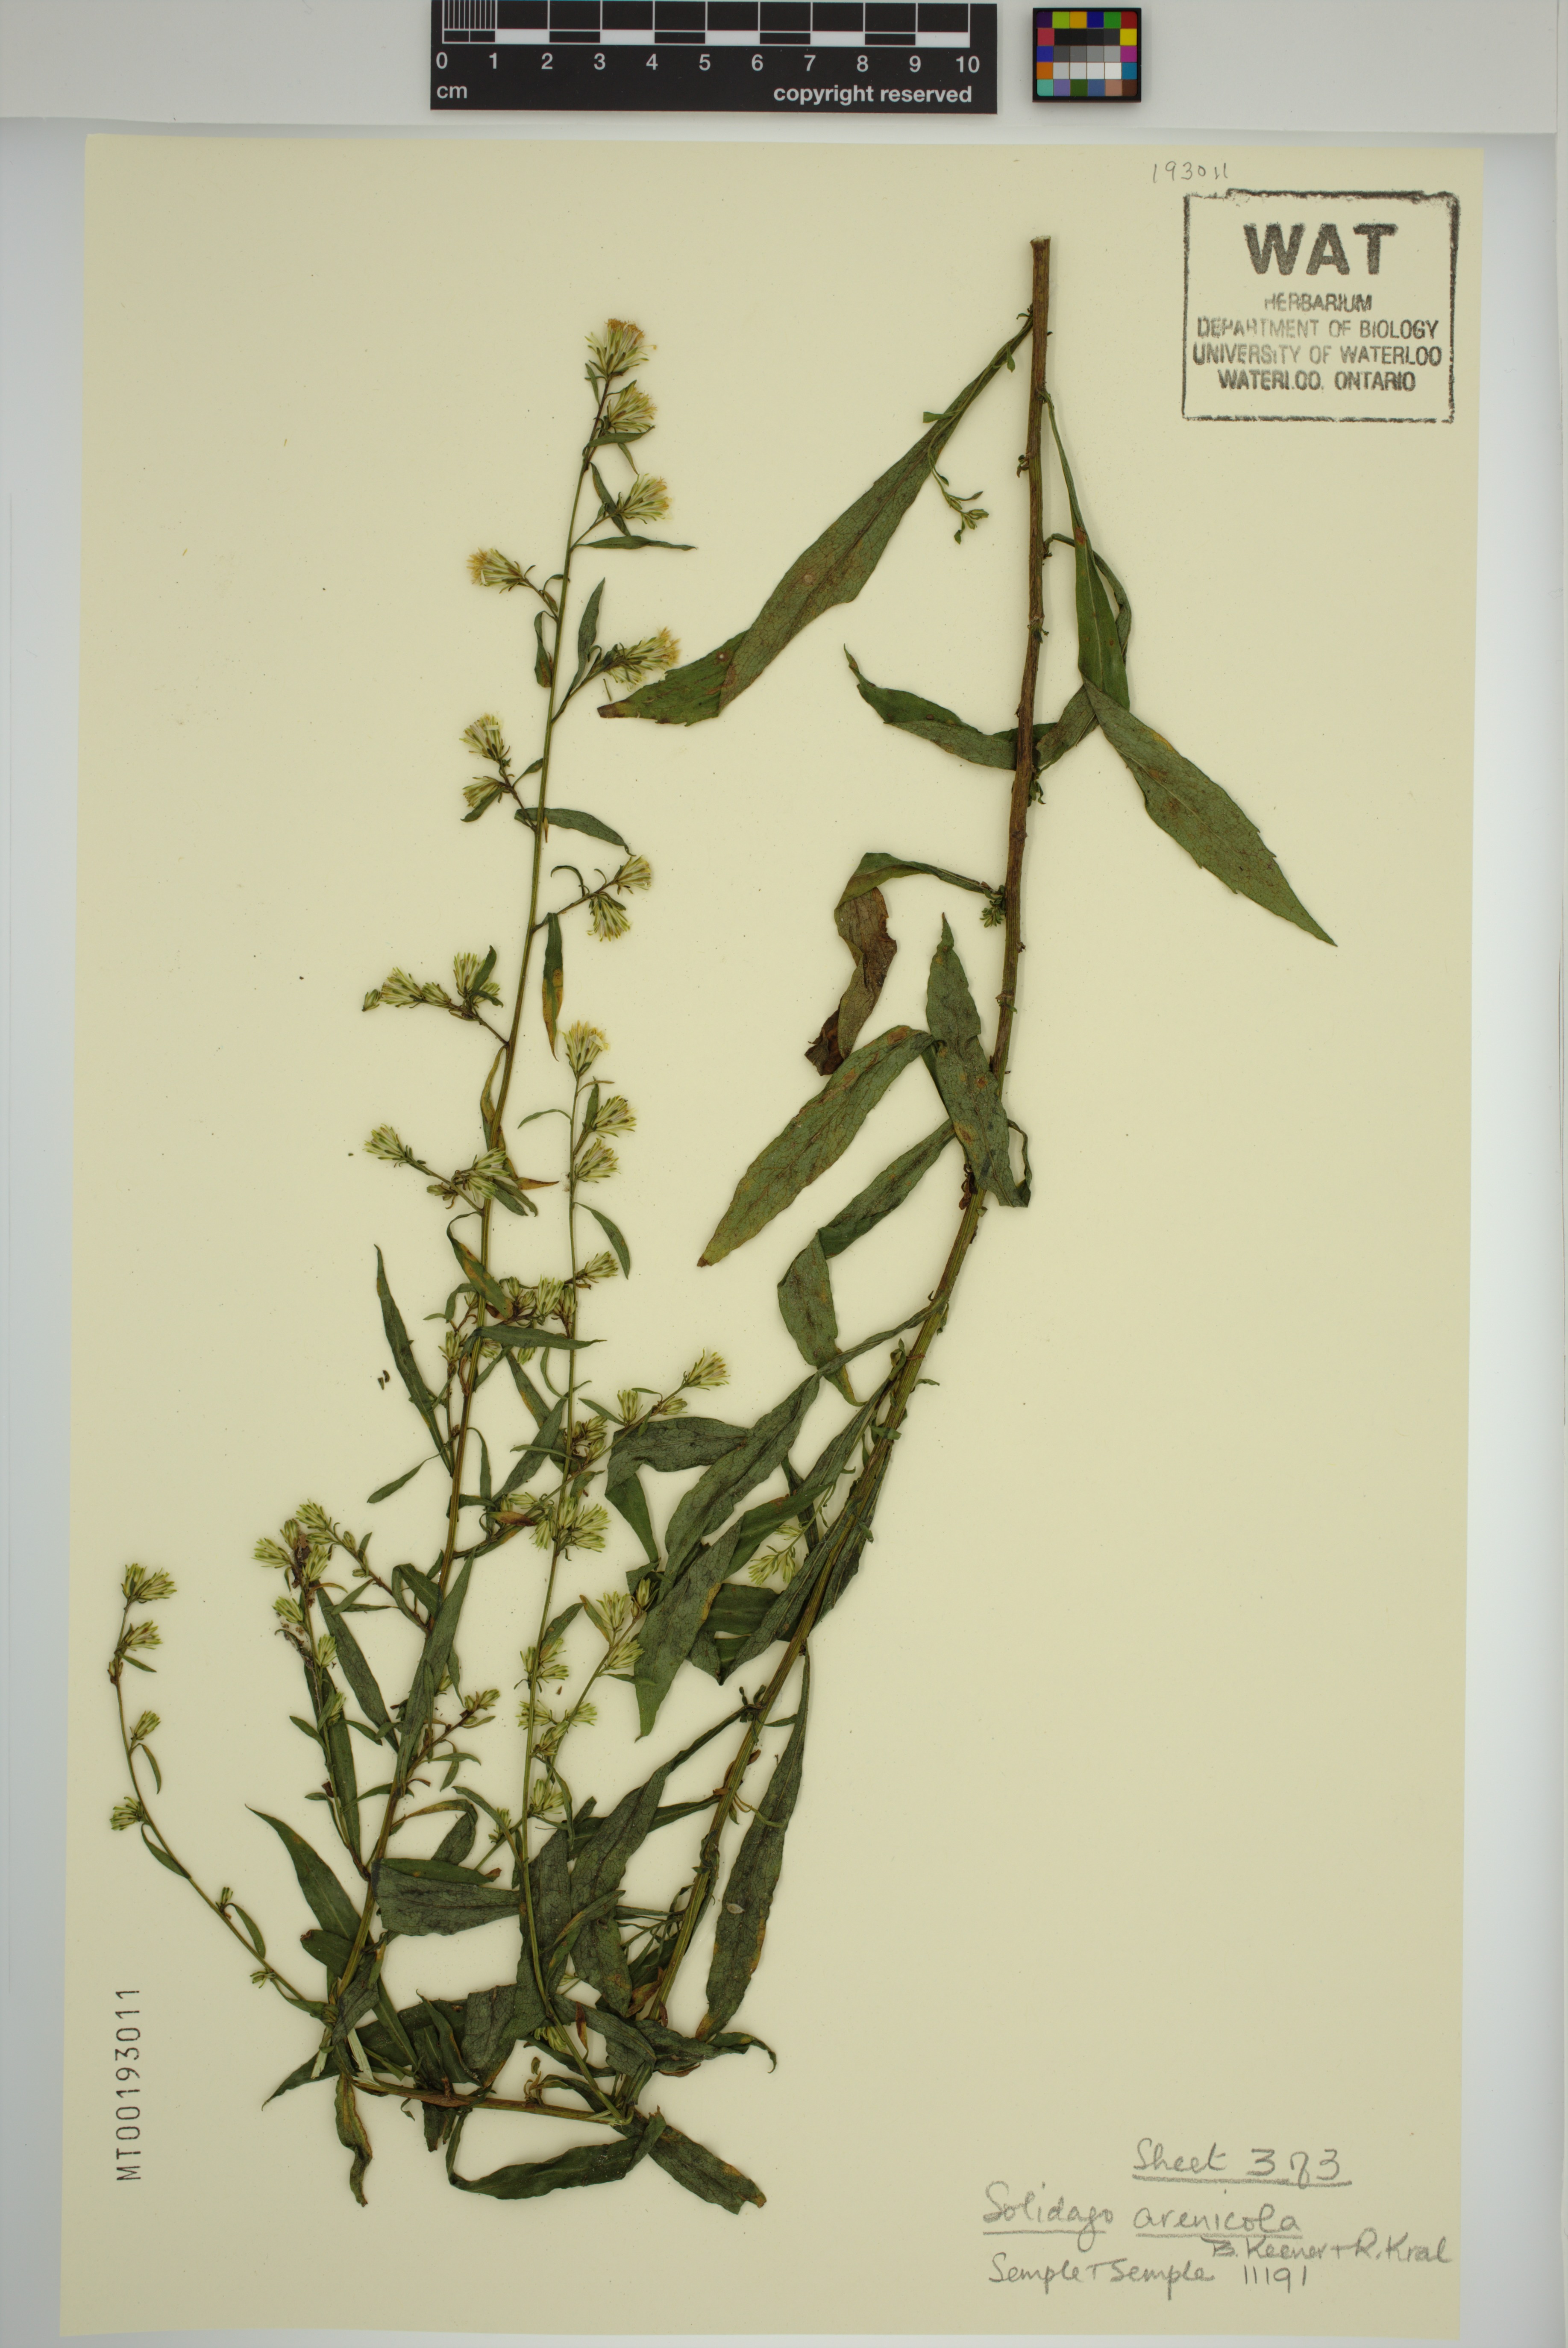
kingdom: Plantae
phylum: Tracheophyta
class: Magnoliopsida
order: Asterales
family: Asteraceae
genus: Solidago
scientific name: Solidago arenicola
